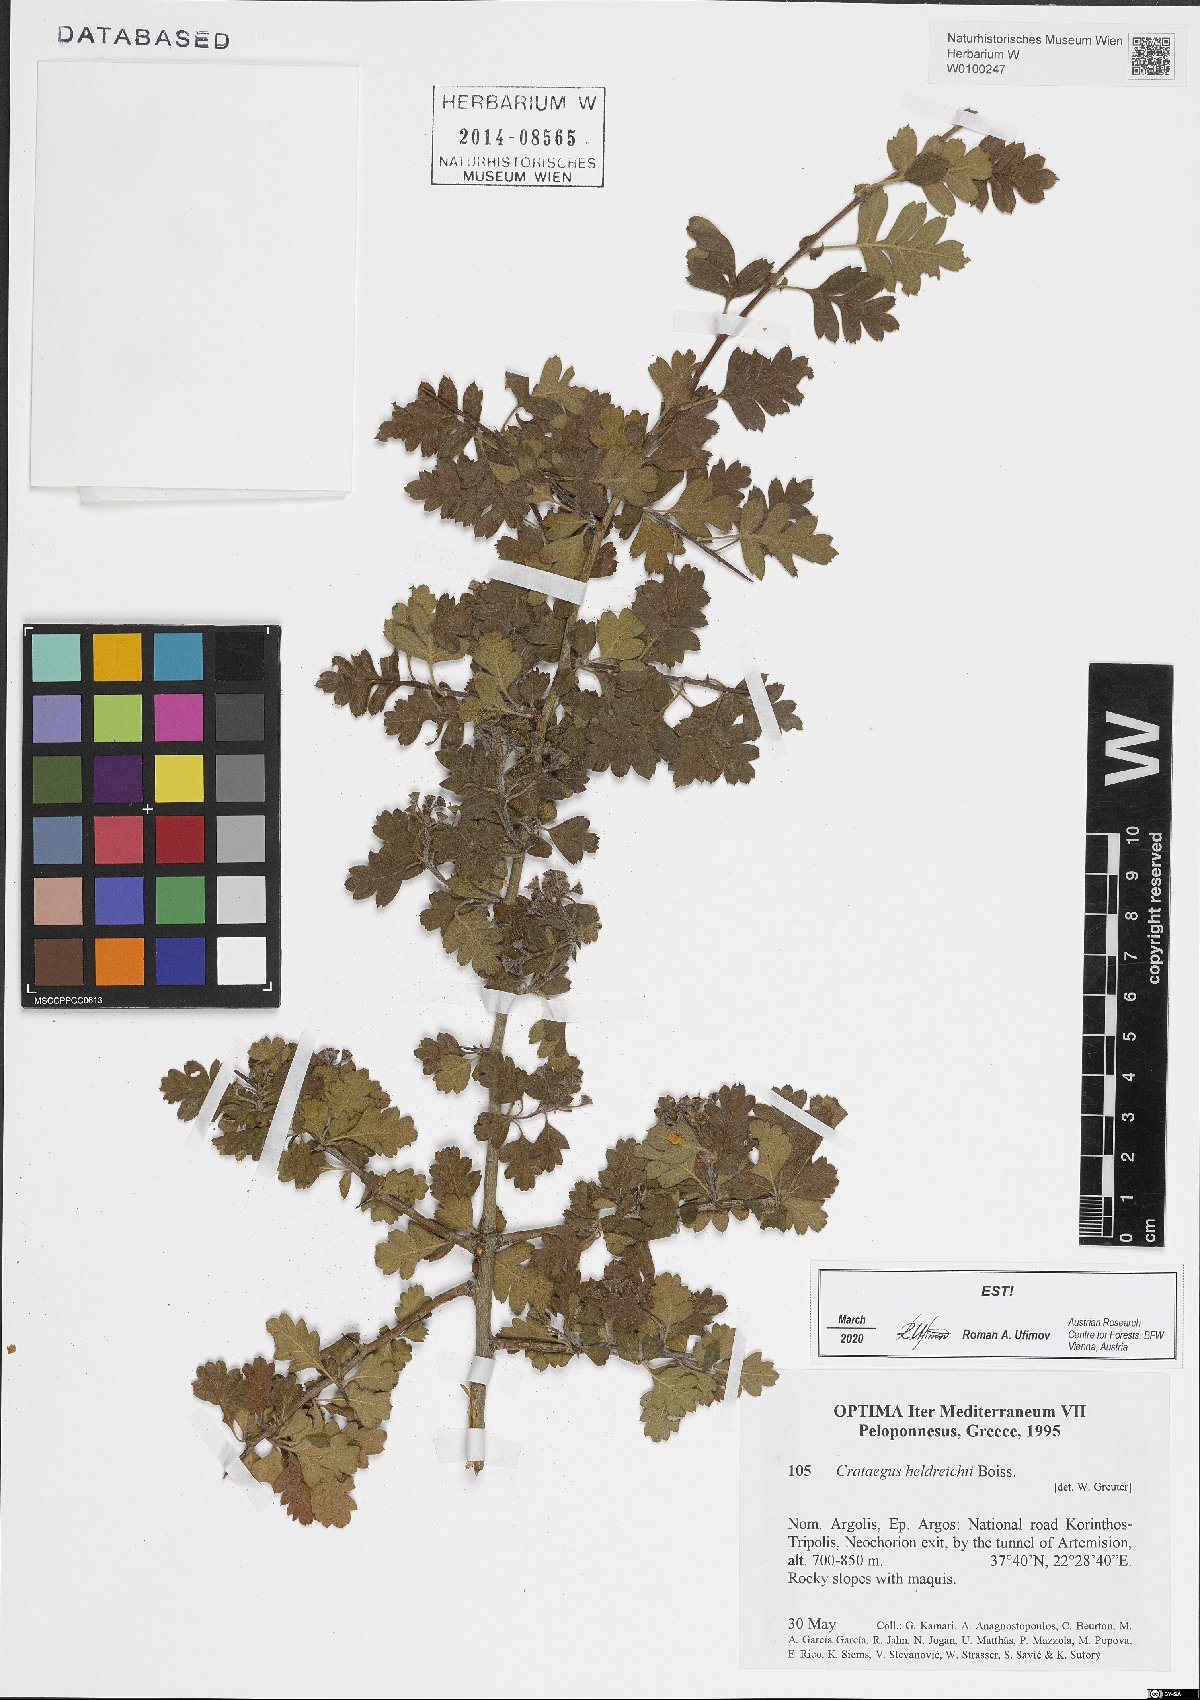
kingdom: Plantae
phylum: Tracheophyta
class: Magnoliopsida
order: Rosales
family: Rosaceae
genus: Crataegus
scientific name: Crataegus heldreichii
